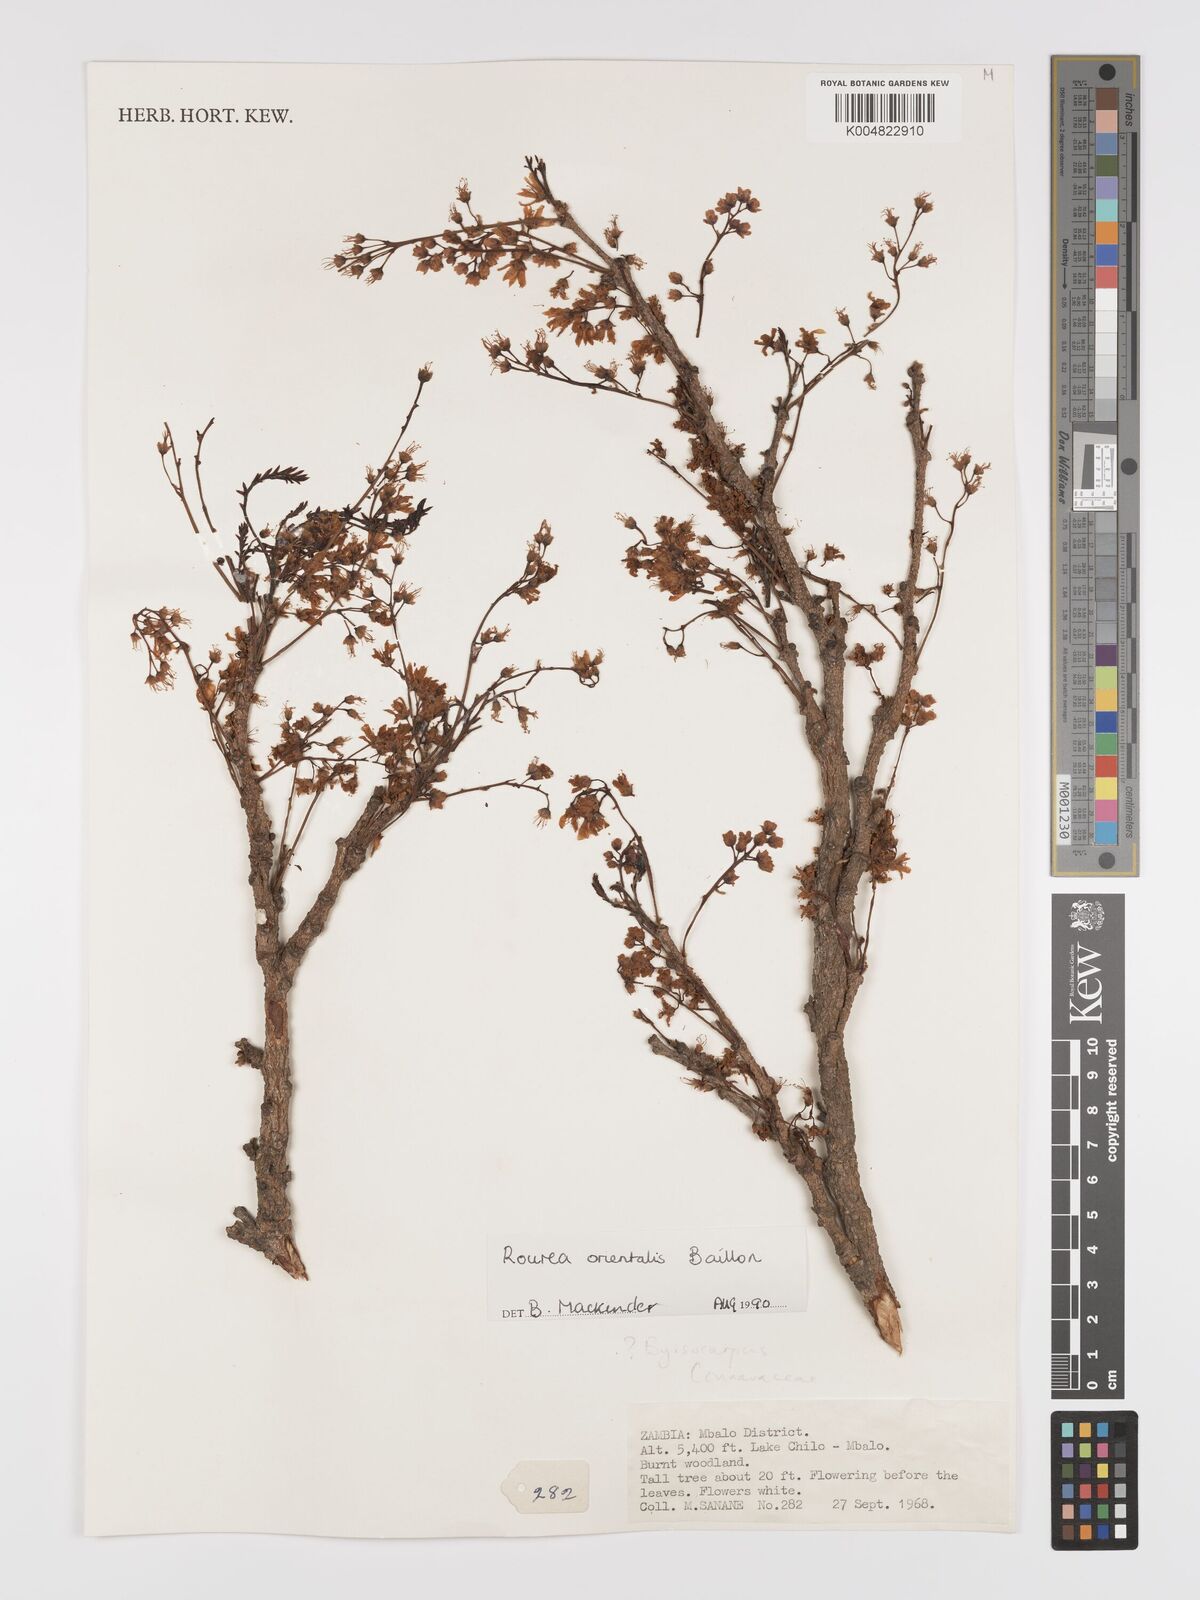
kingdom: Plantae
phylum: Tracheophyta
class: Magnoliopsida
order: Oxalidales
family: Connaraceae
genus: Rourea
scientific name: Rourea orientalis
